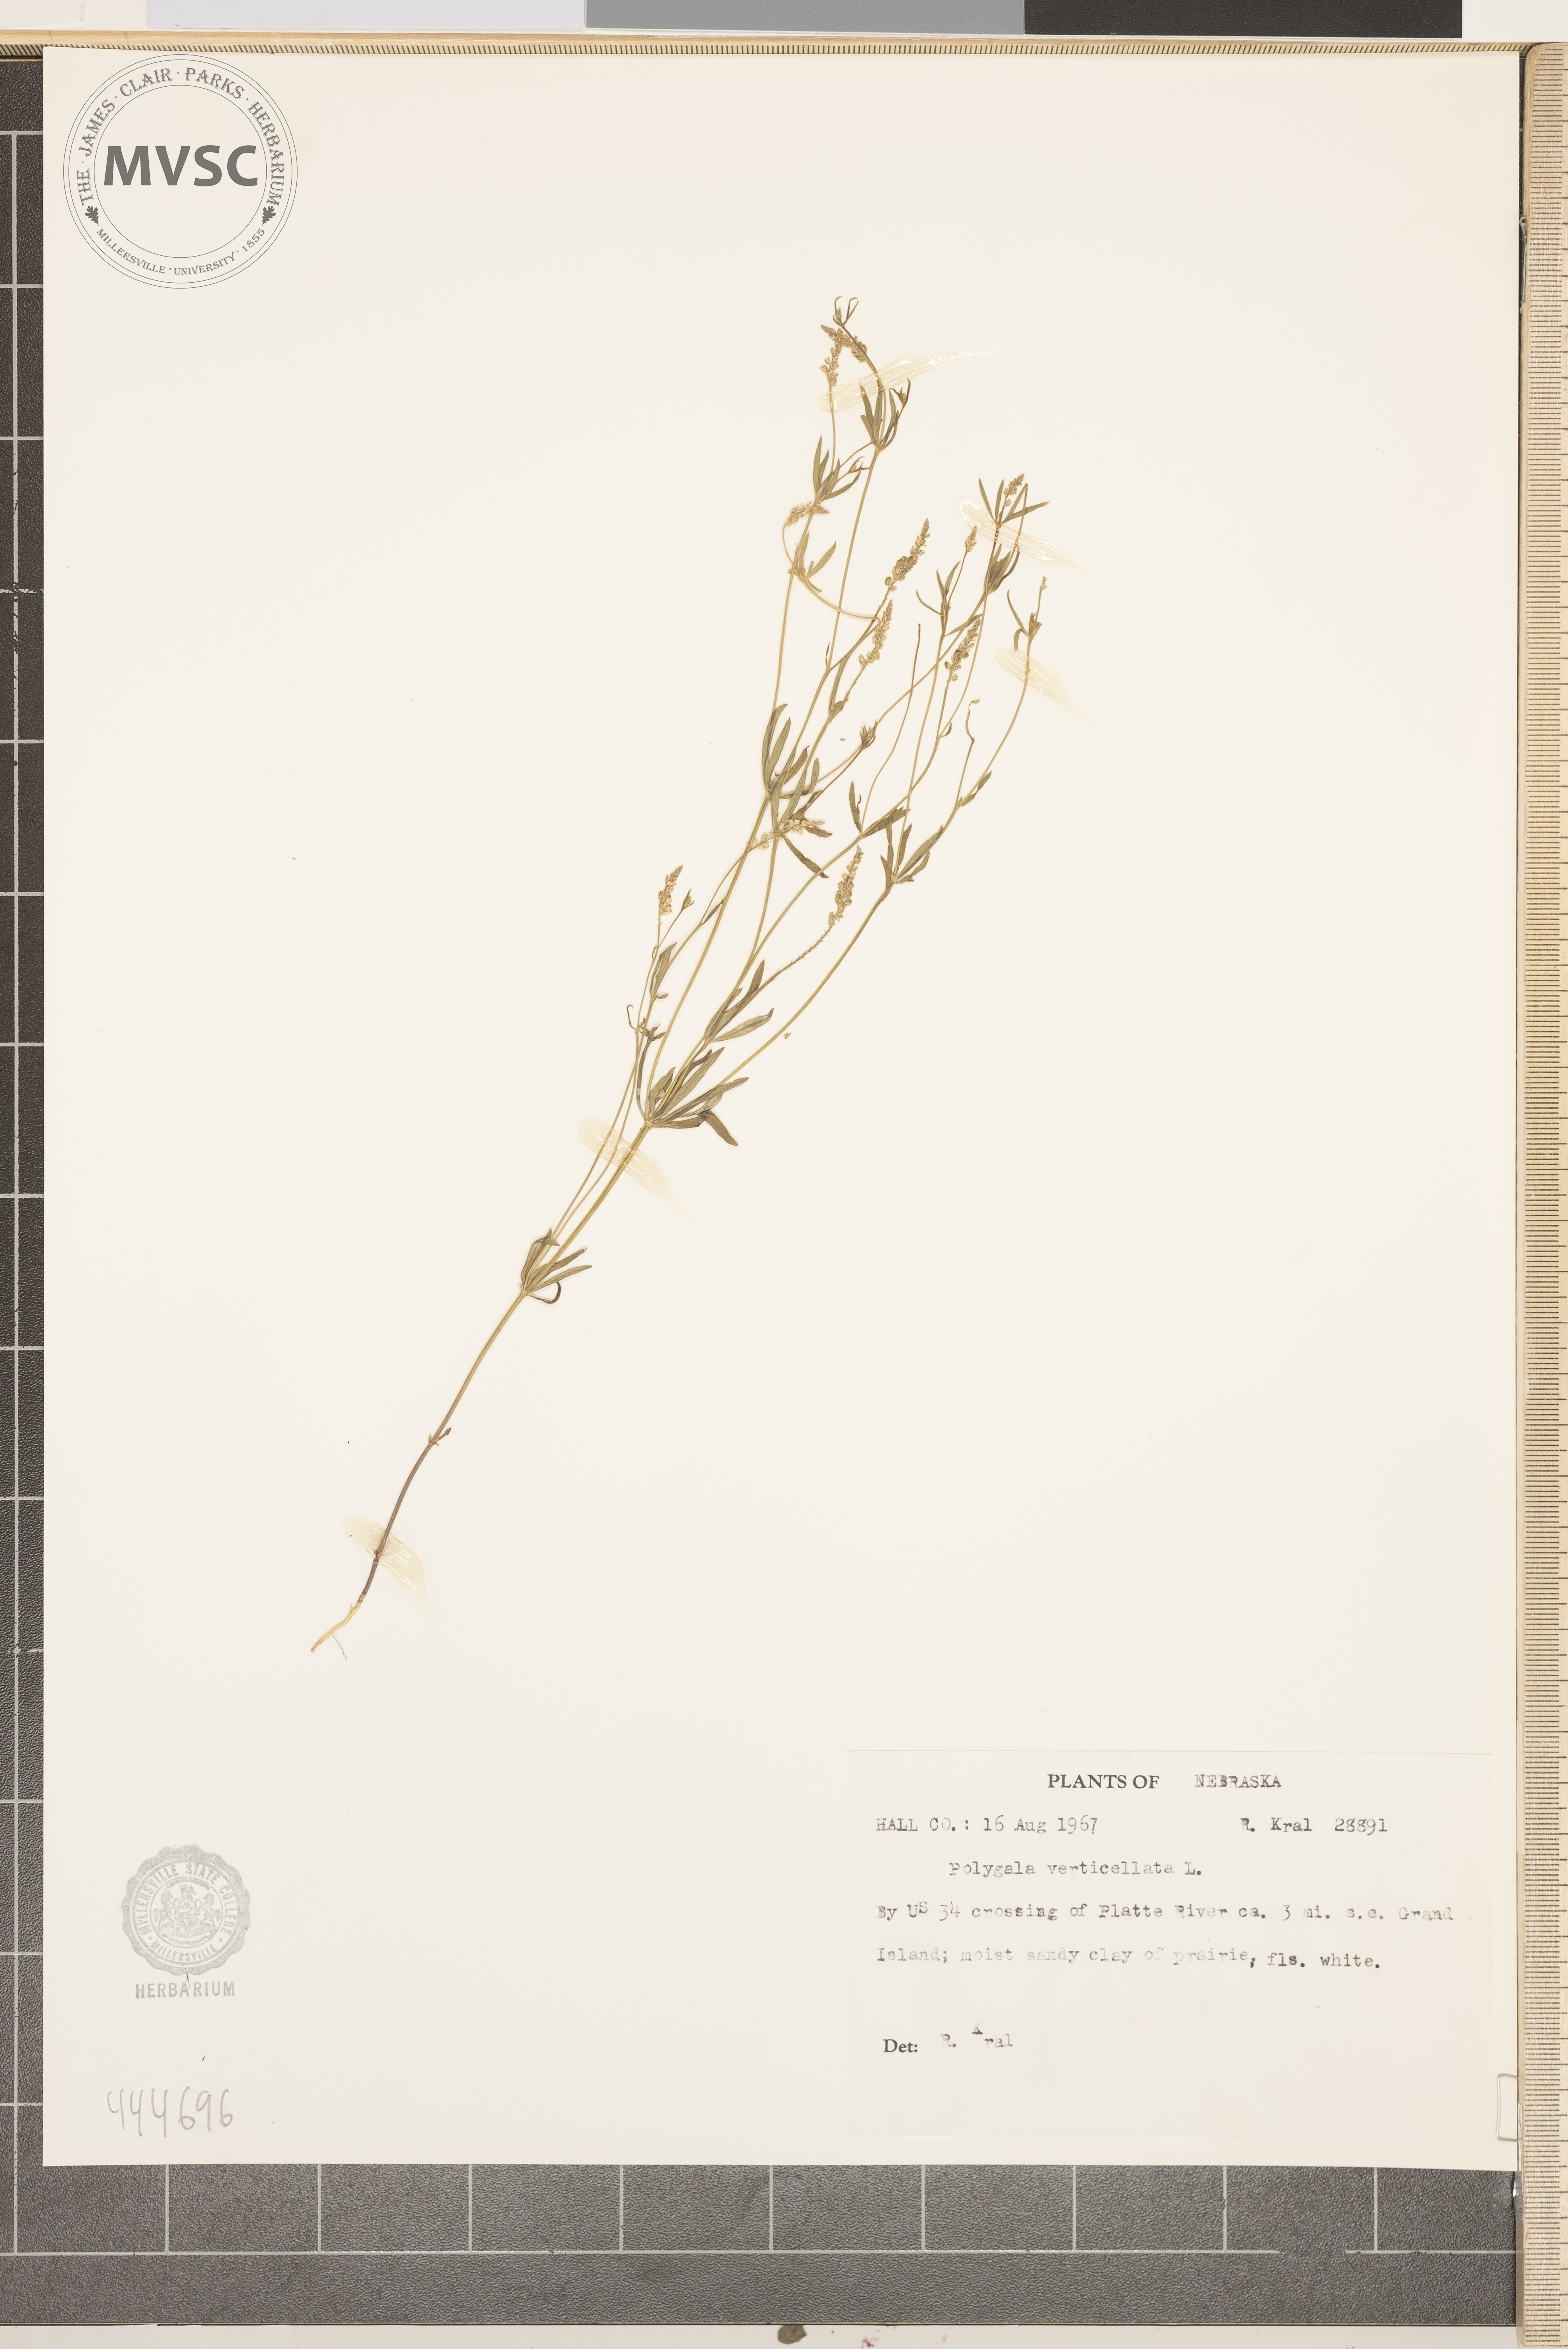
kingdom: Plantae
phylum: Tracheophyta
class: Magnoliopsida
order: Fabales
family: Polygalaceae
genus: Polygala
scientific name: Polygala verticillata
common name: Whorl milkwort
